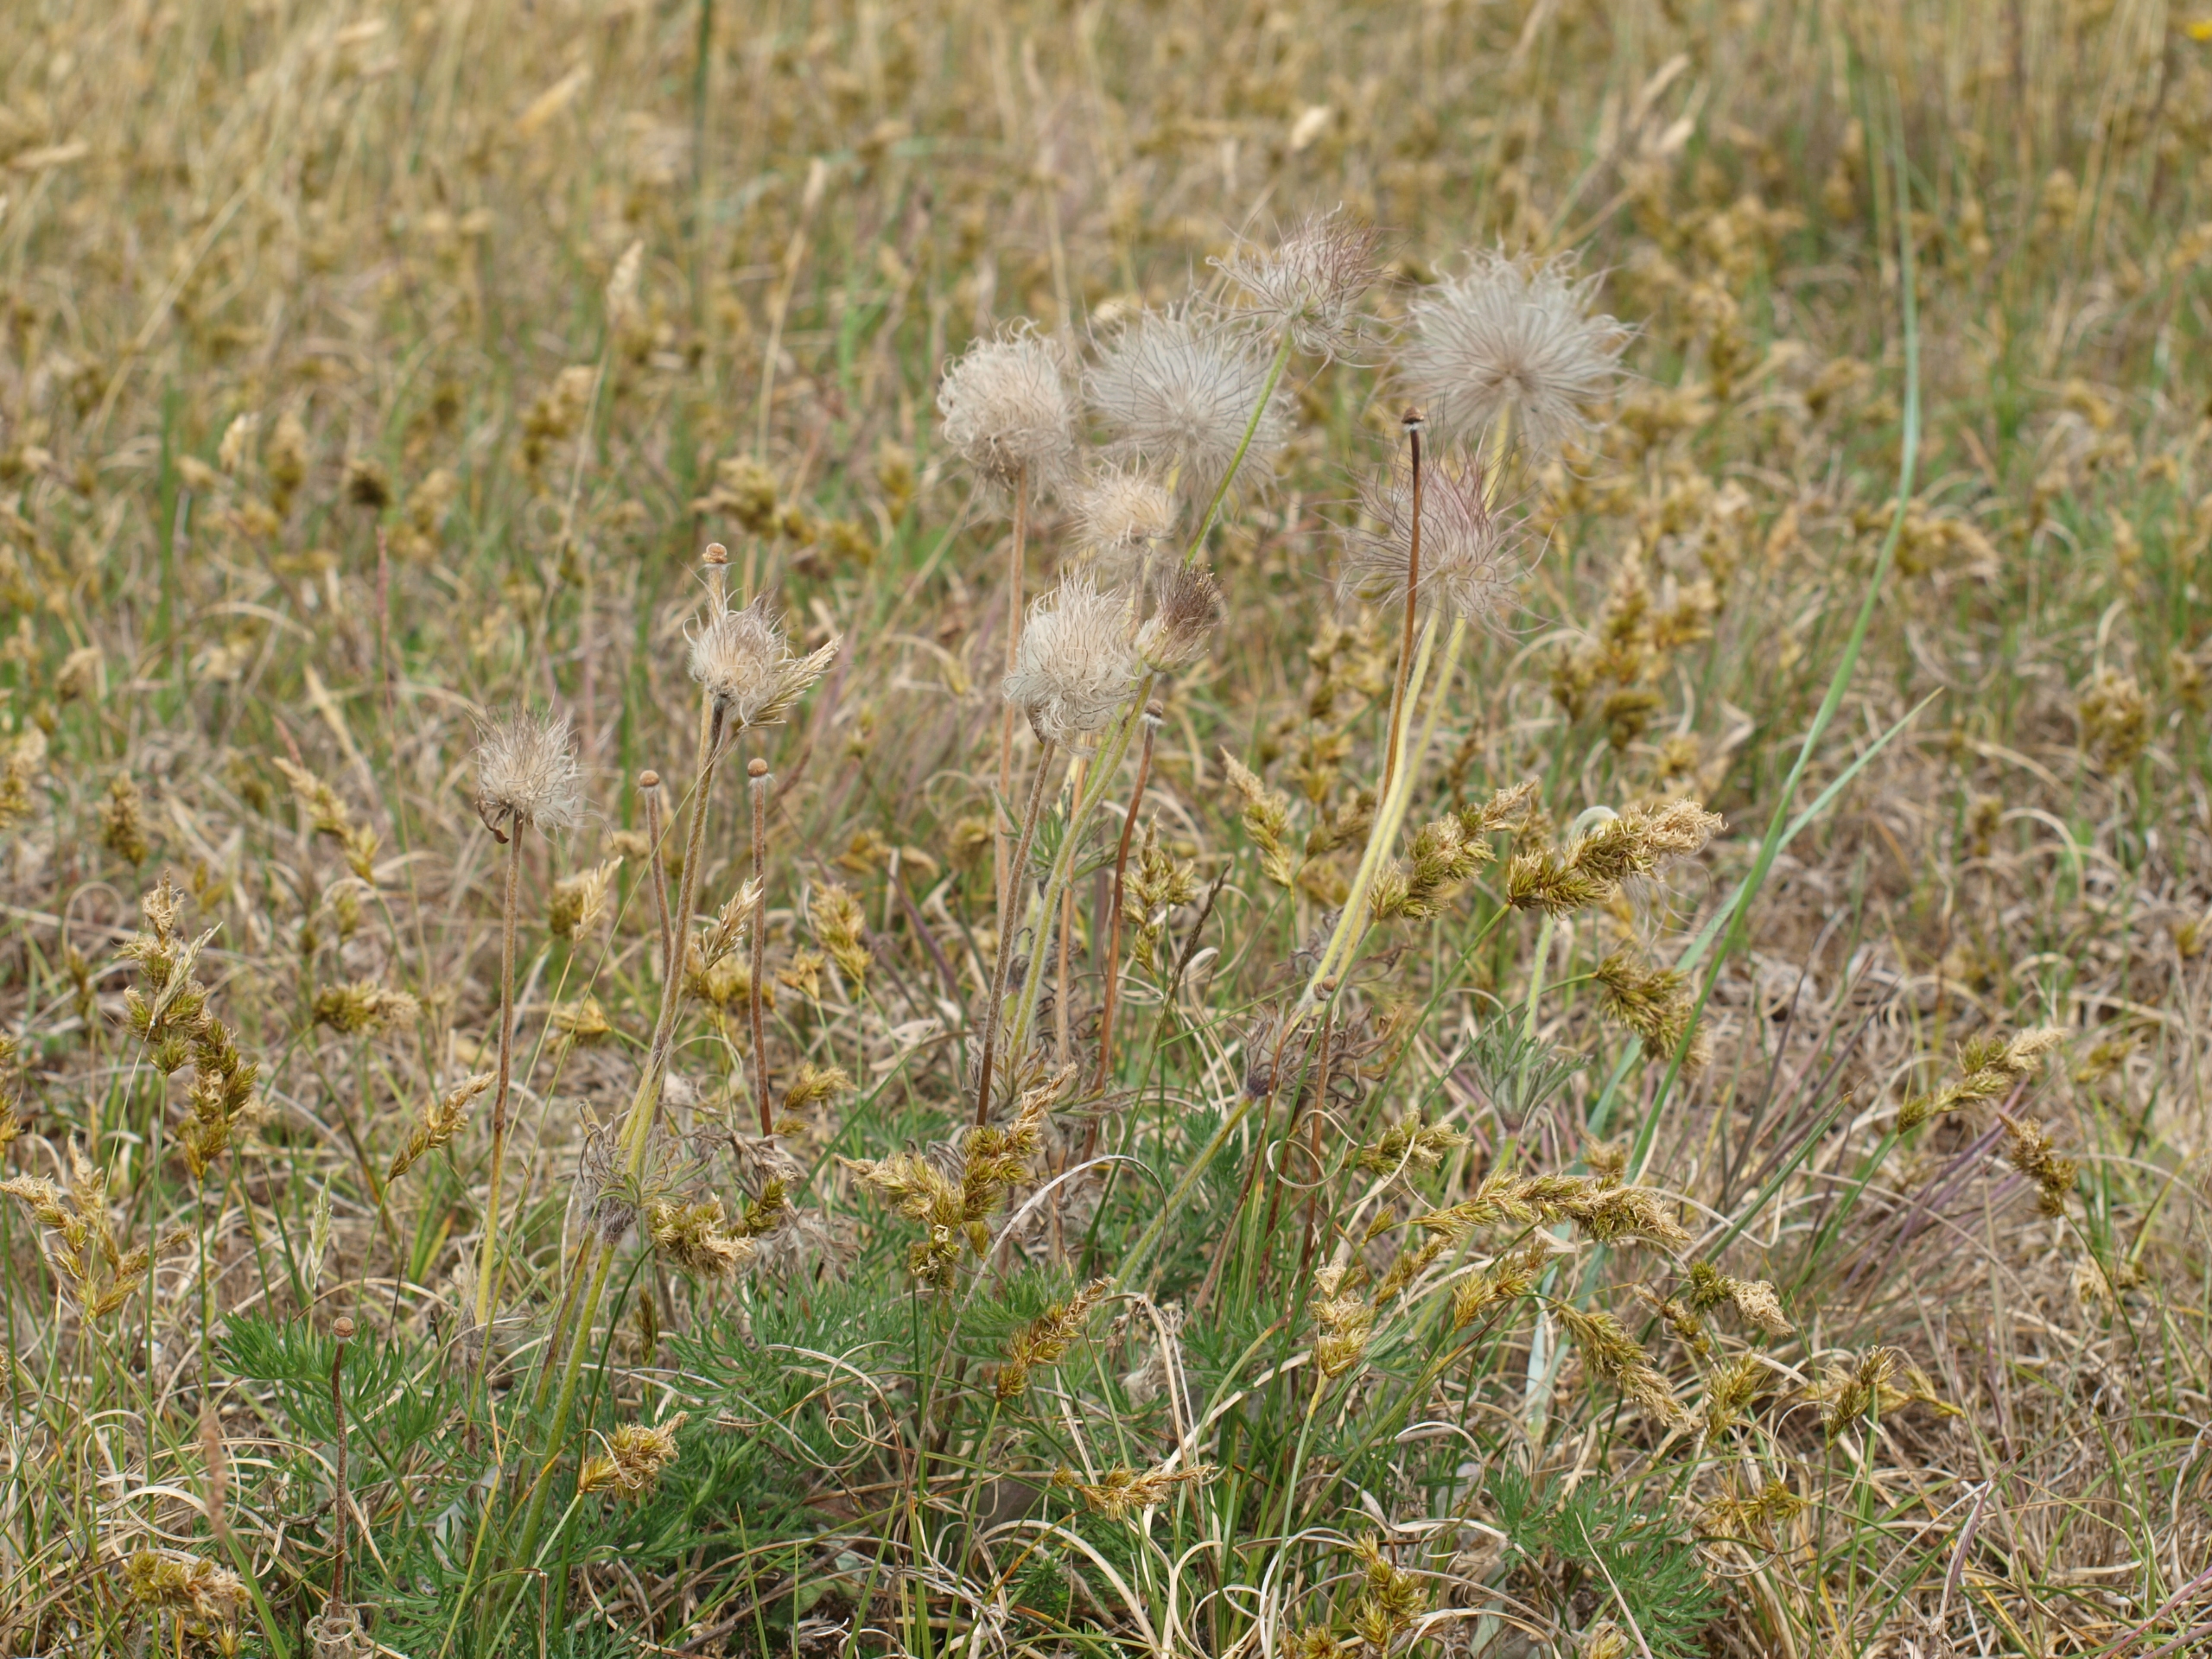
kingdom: Plantae
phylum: Tracheophyta
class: Magnoliopsida
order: Ranunculales
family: Ranunculaceae
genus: Pulsatilla
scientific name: Pulsatilla pratensis
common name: Nikkende kobjælde
